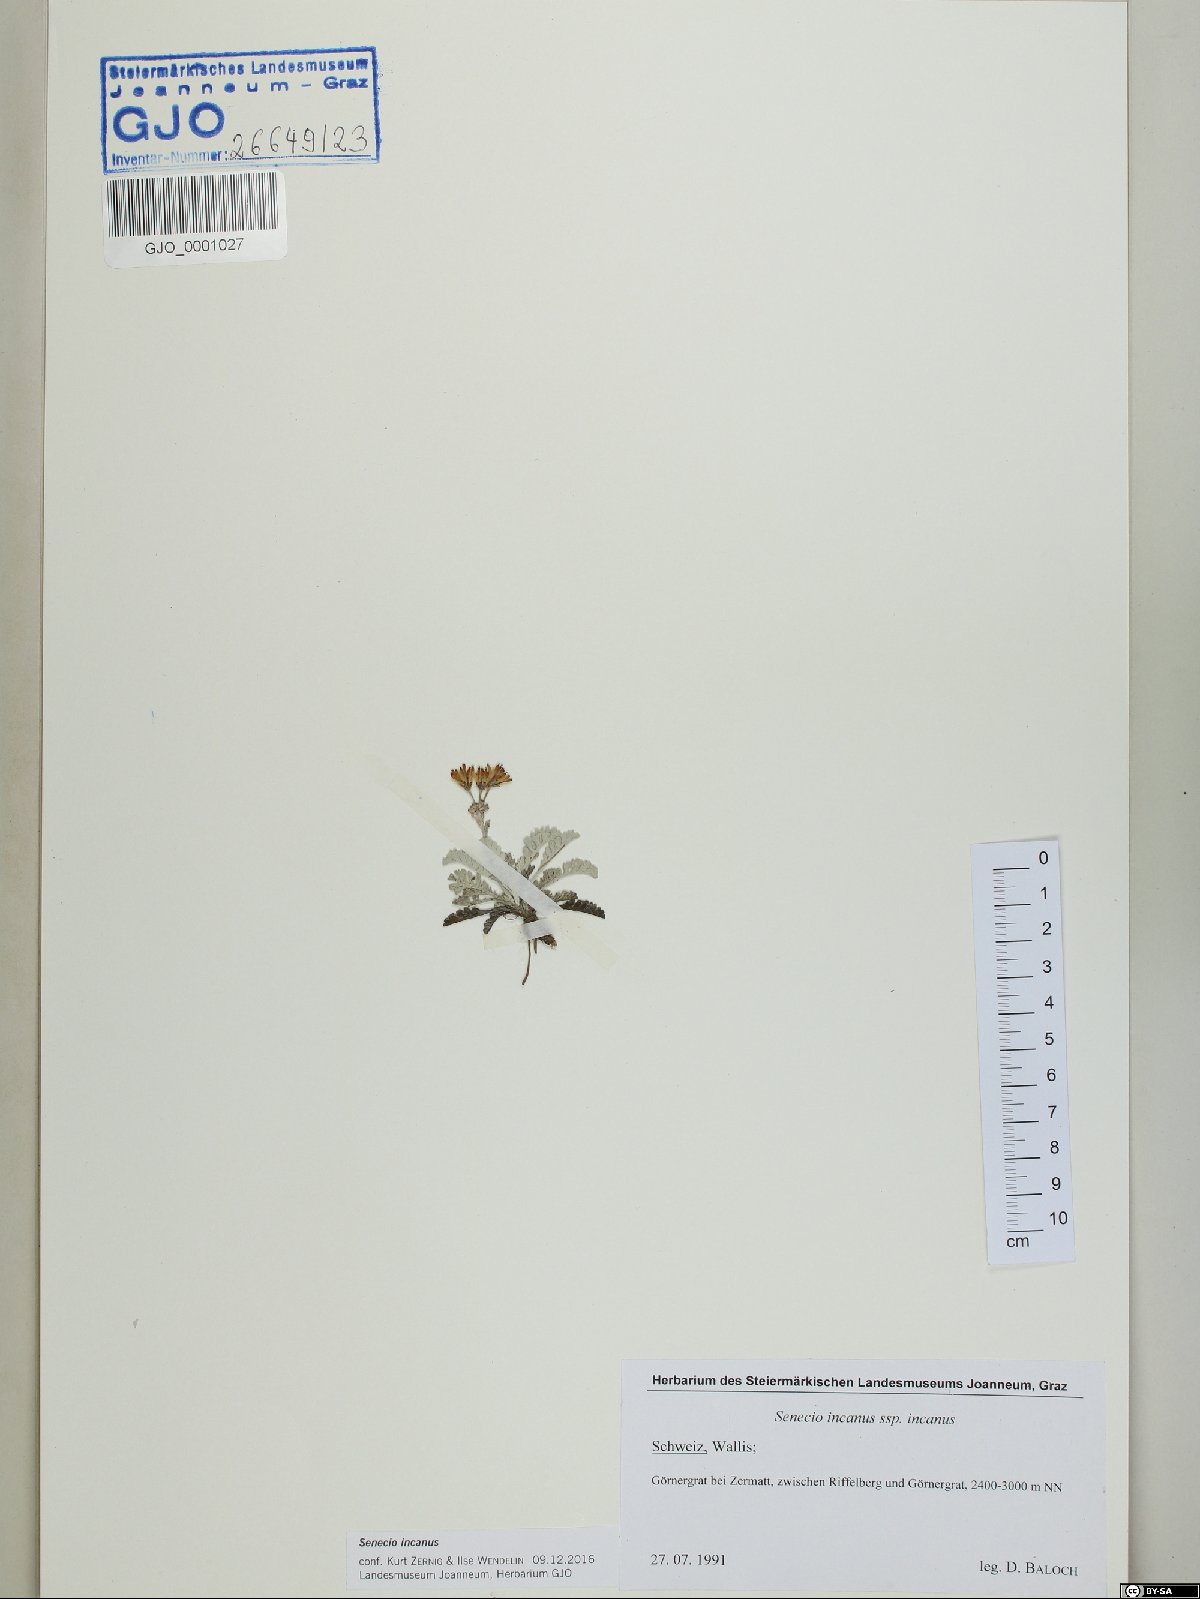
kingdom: Plantae
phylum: Tracheophyta
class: Magnoliopsida
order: Asterales
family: Asteraceae
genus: Jacobaea
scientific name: Jacobaea incana
